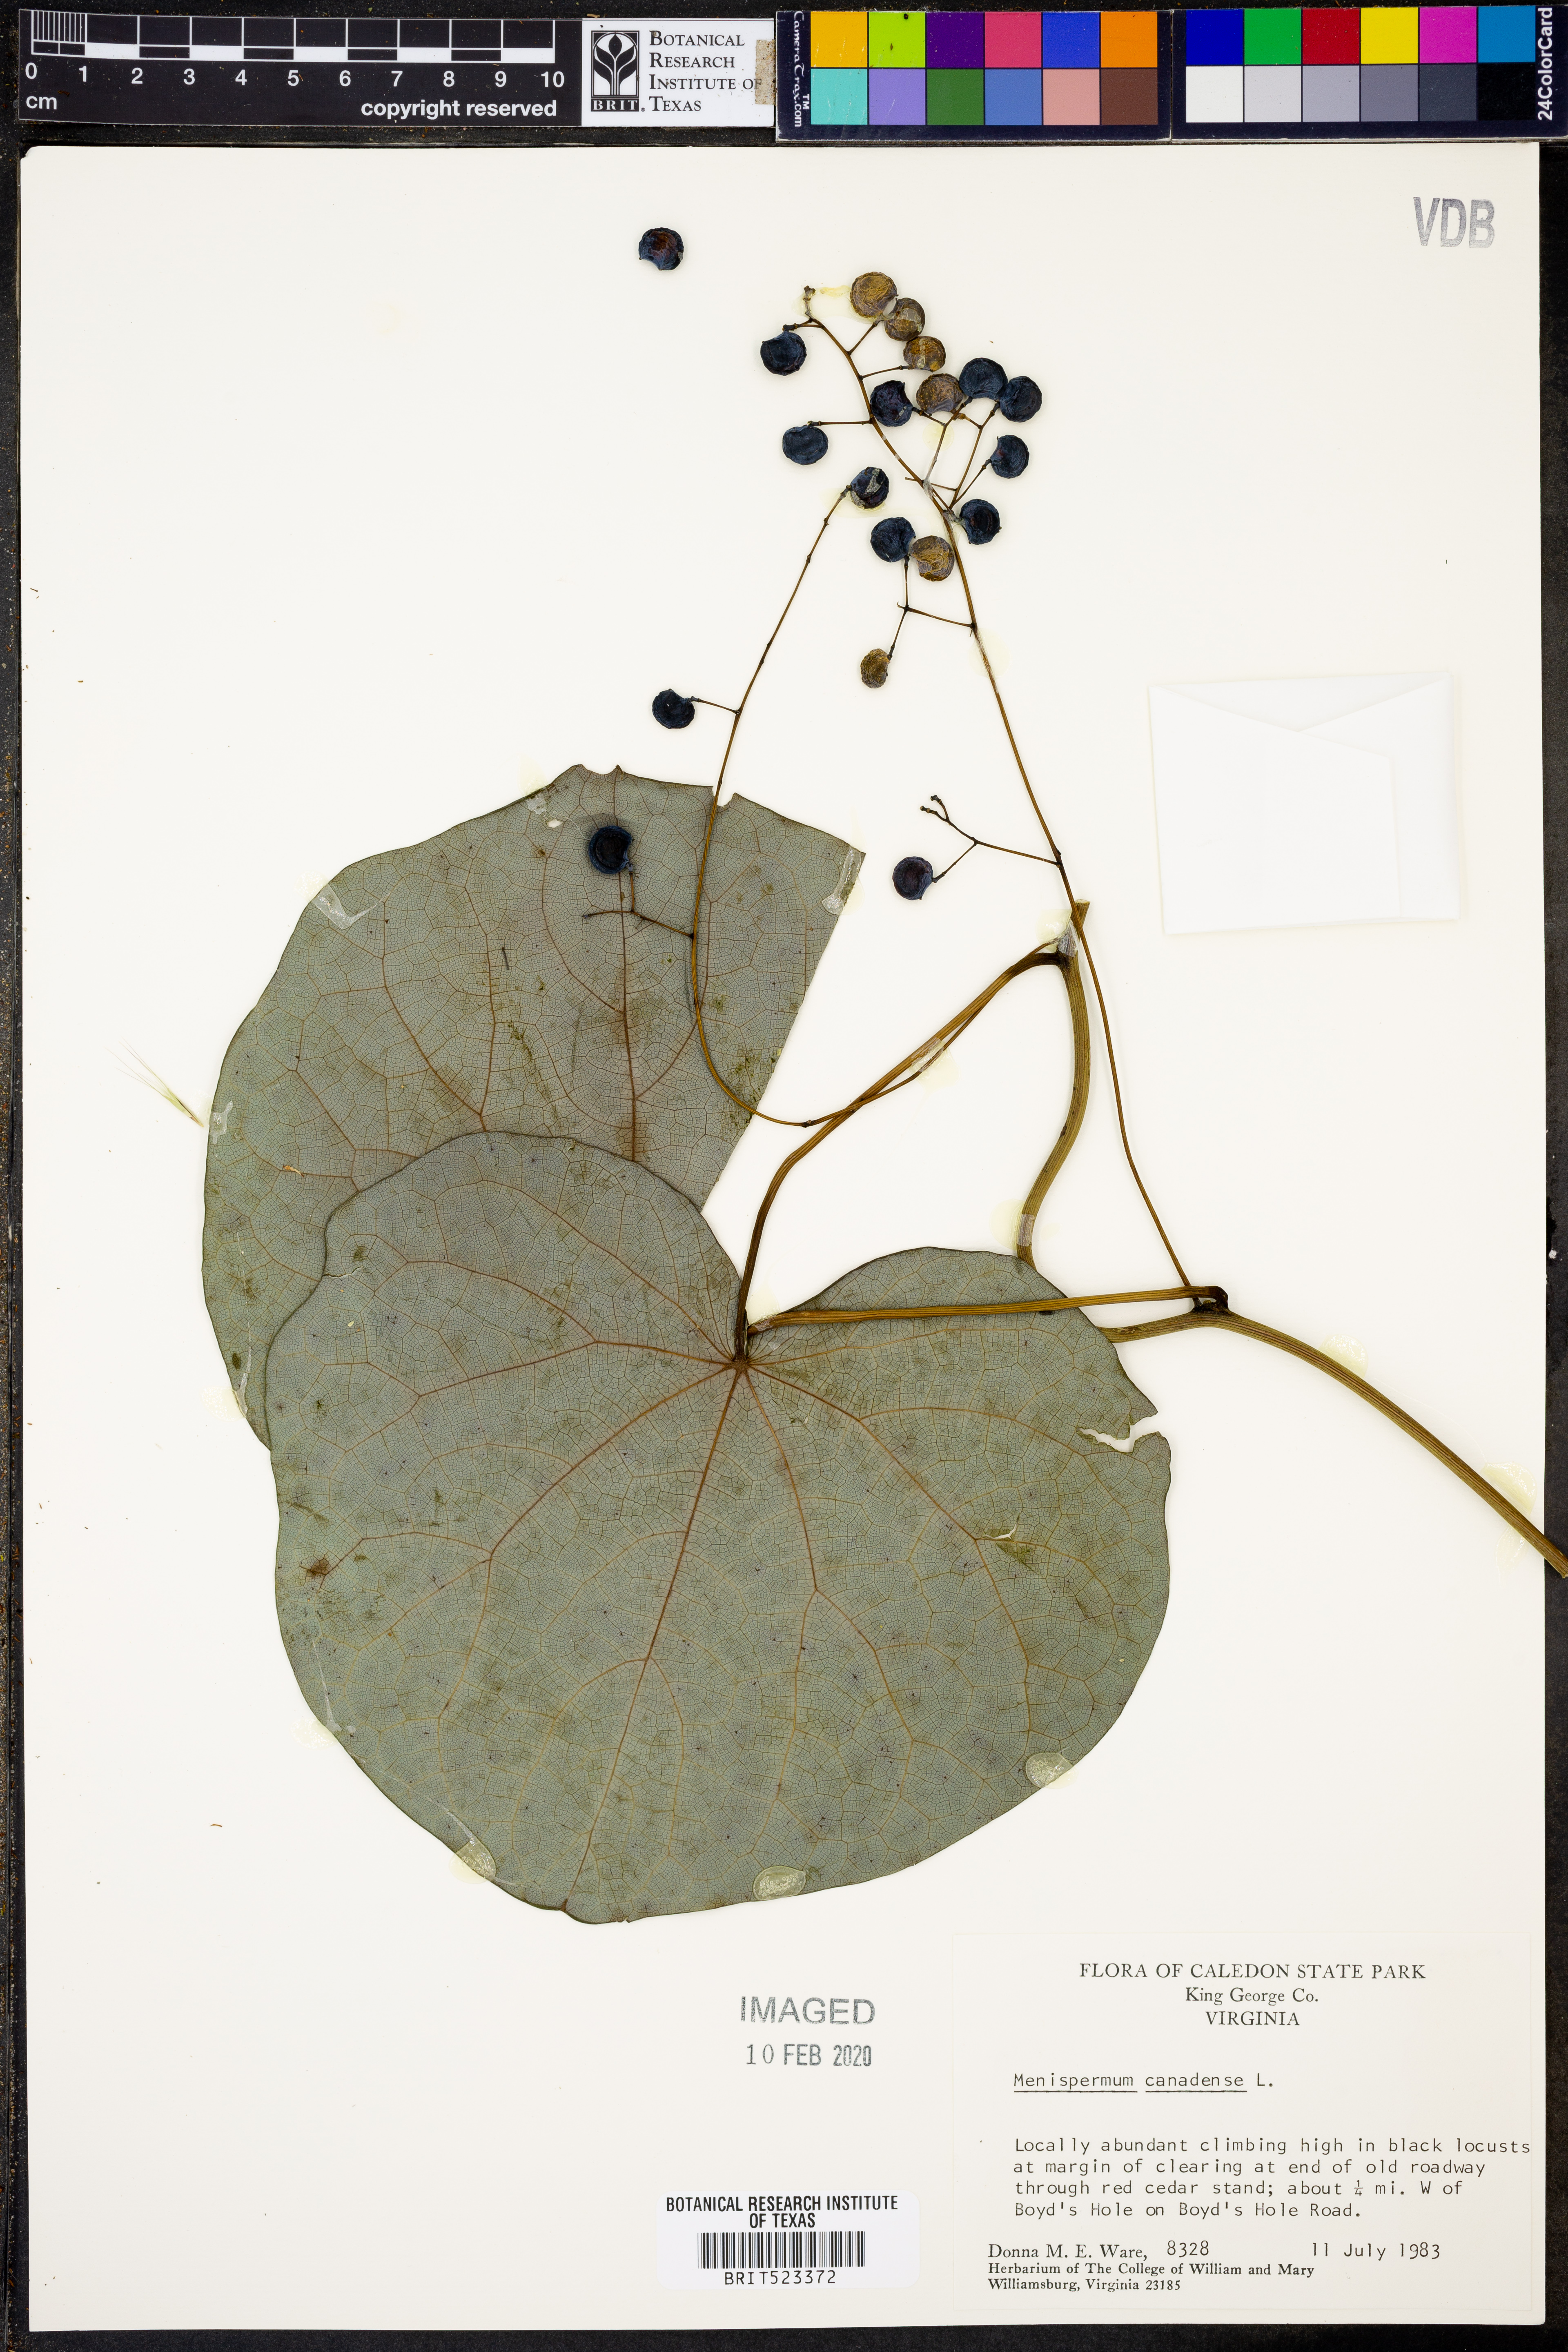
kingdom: Plantae
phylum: Tracheophyta
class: Magnoliopsida
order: Ranunculales
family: Menispermaceae
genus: Menispermum
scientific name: Menispermum canadense
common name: Moonseed
